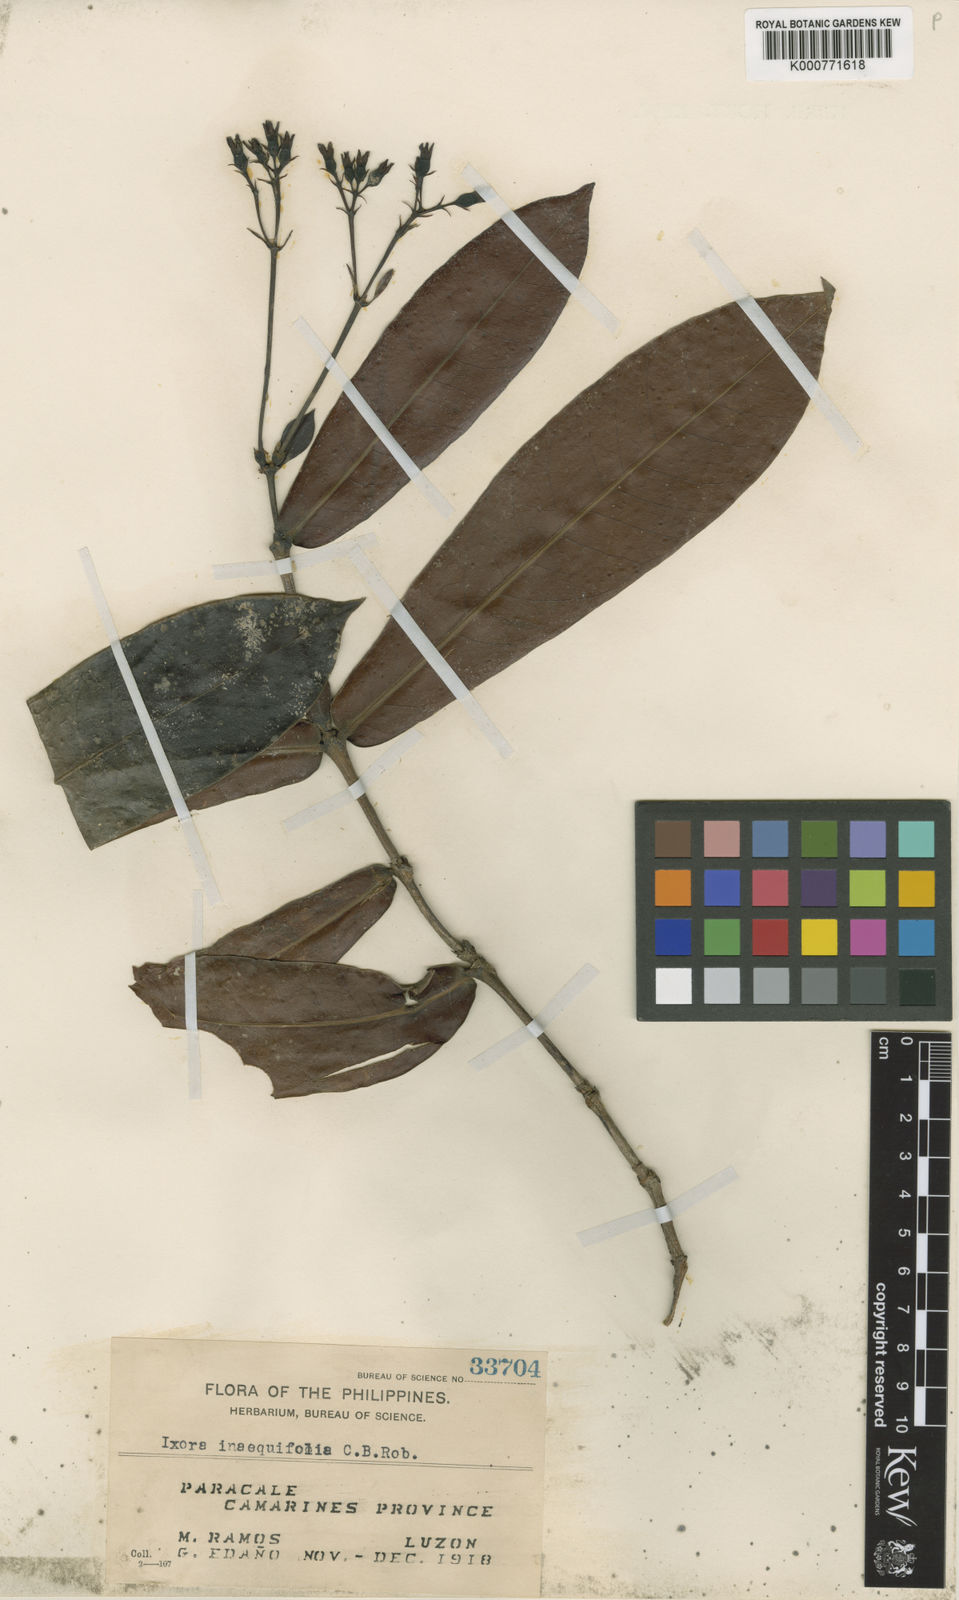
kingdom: Plantae
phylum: Tracheophyta
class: Magnoliopsida
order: Gentianales
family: Rubiaceae
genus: Ixora
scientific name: Ixora inaequifolia
